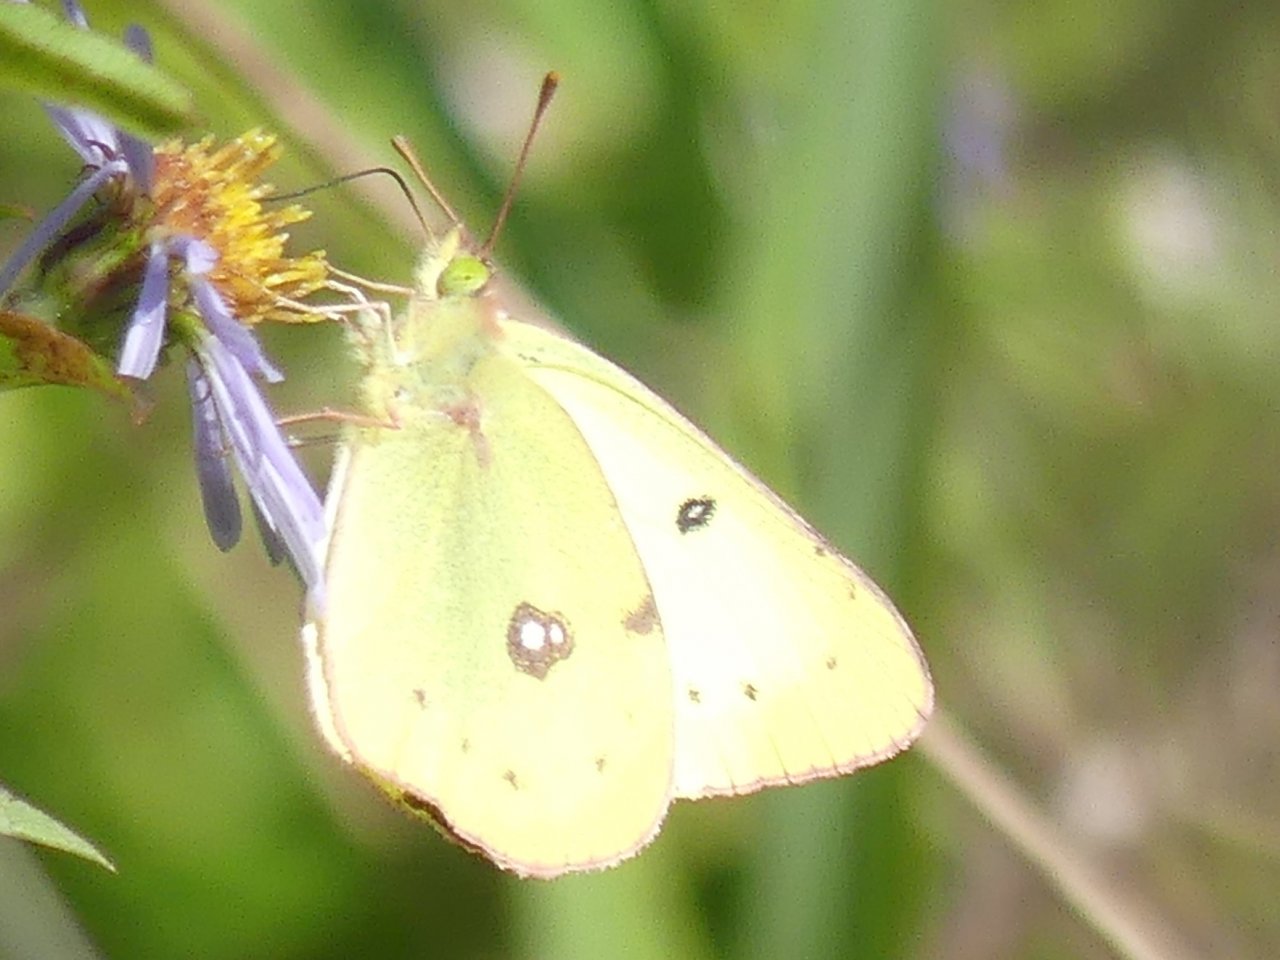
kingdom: Animalia
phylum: Arthropoda
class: Insecta
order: Lepidoptera
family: Pieridae
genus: Colias
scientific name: Colias philodice
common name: Clouded Sulphur
